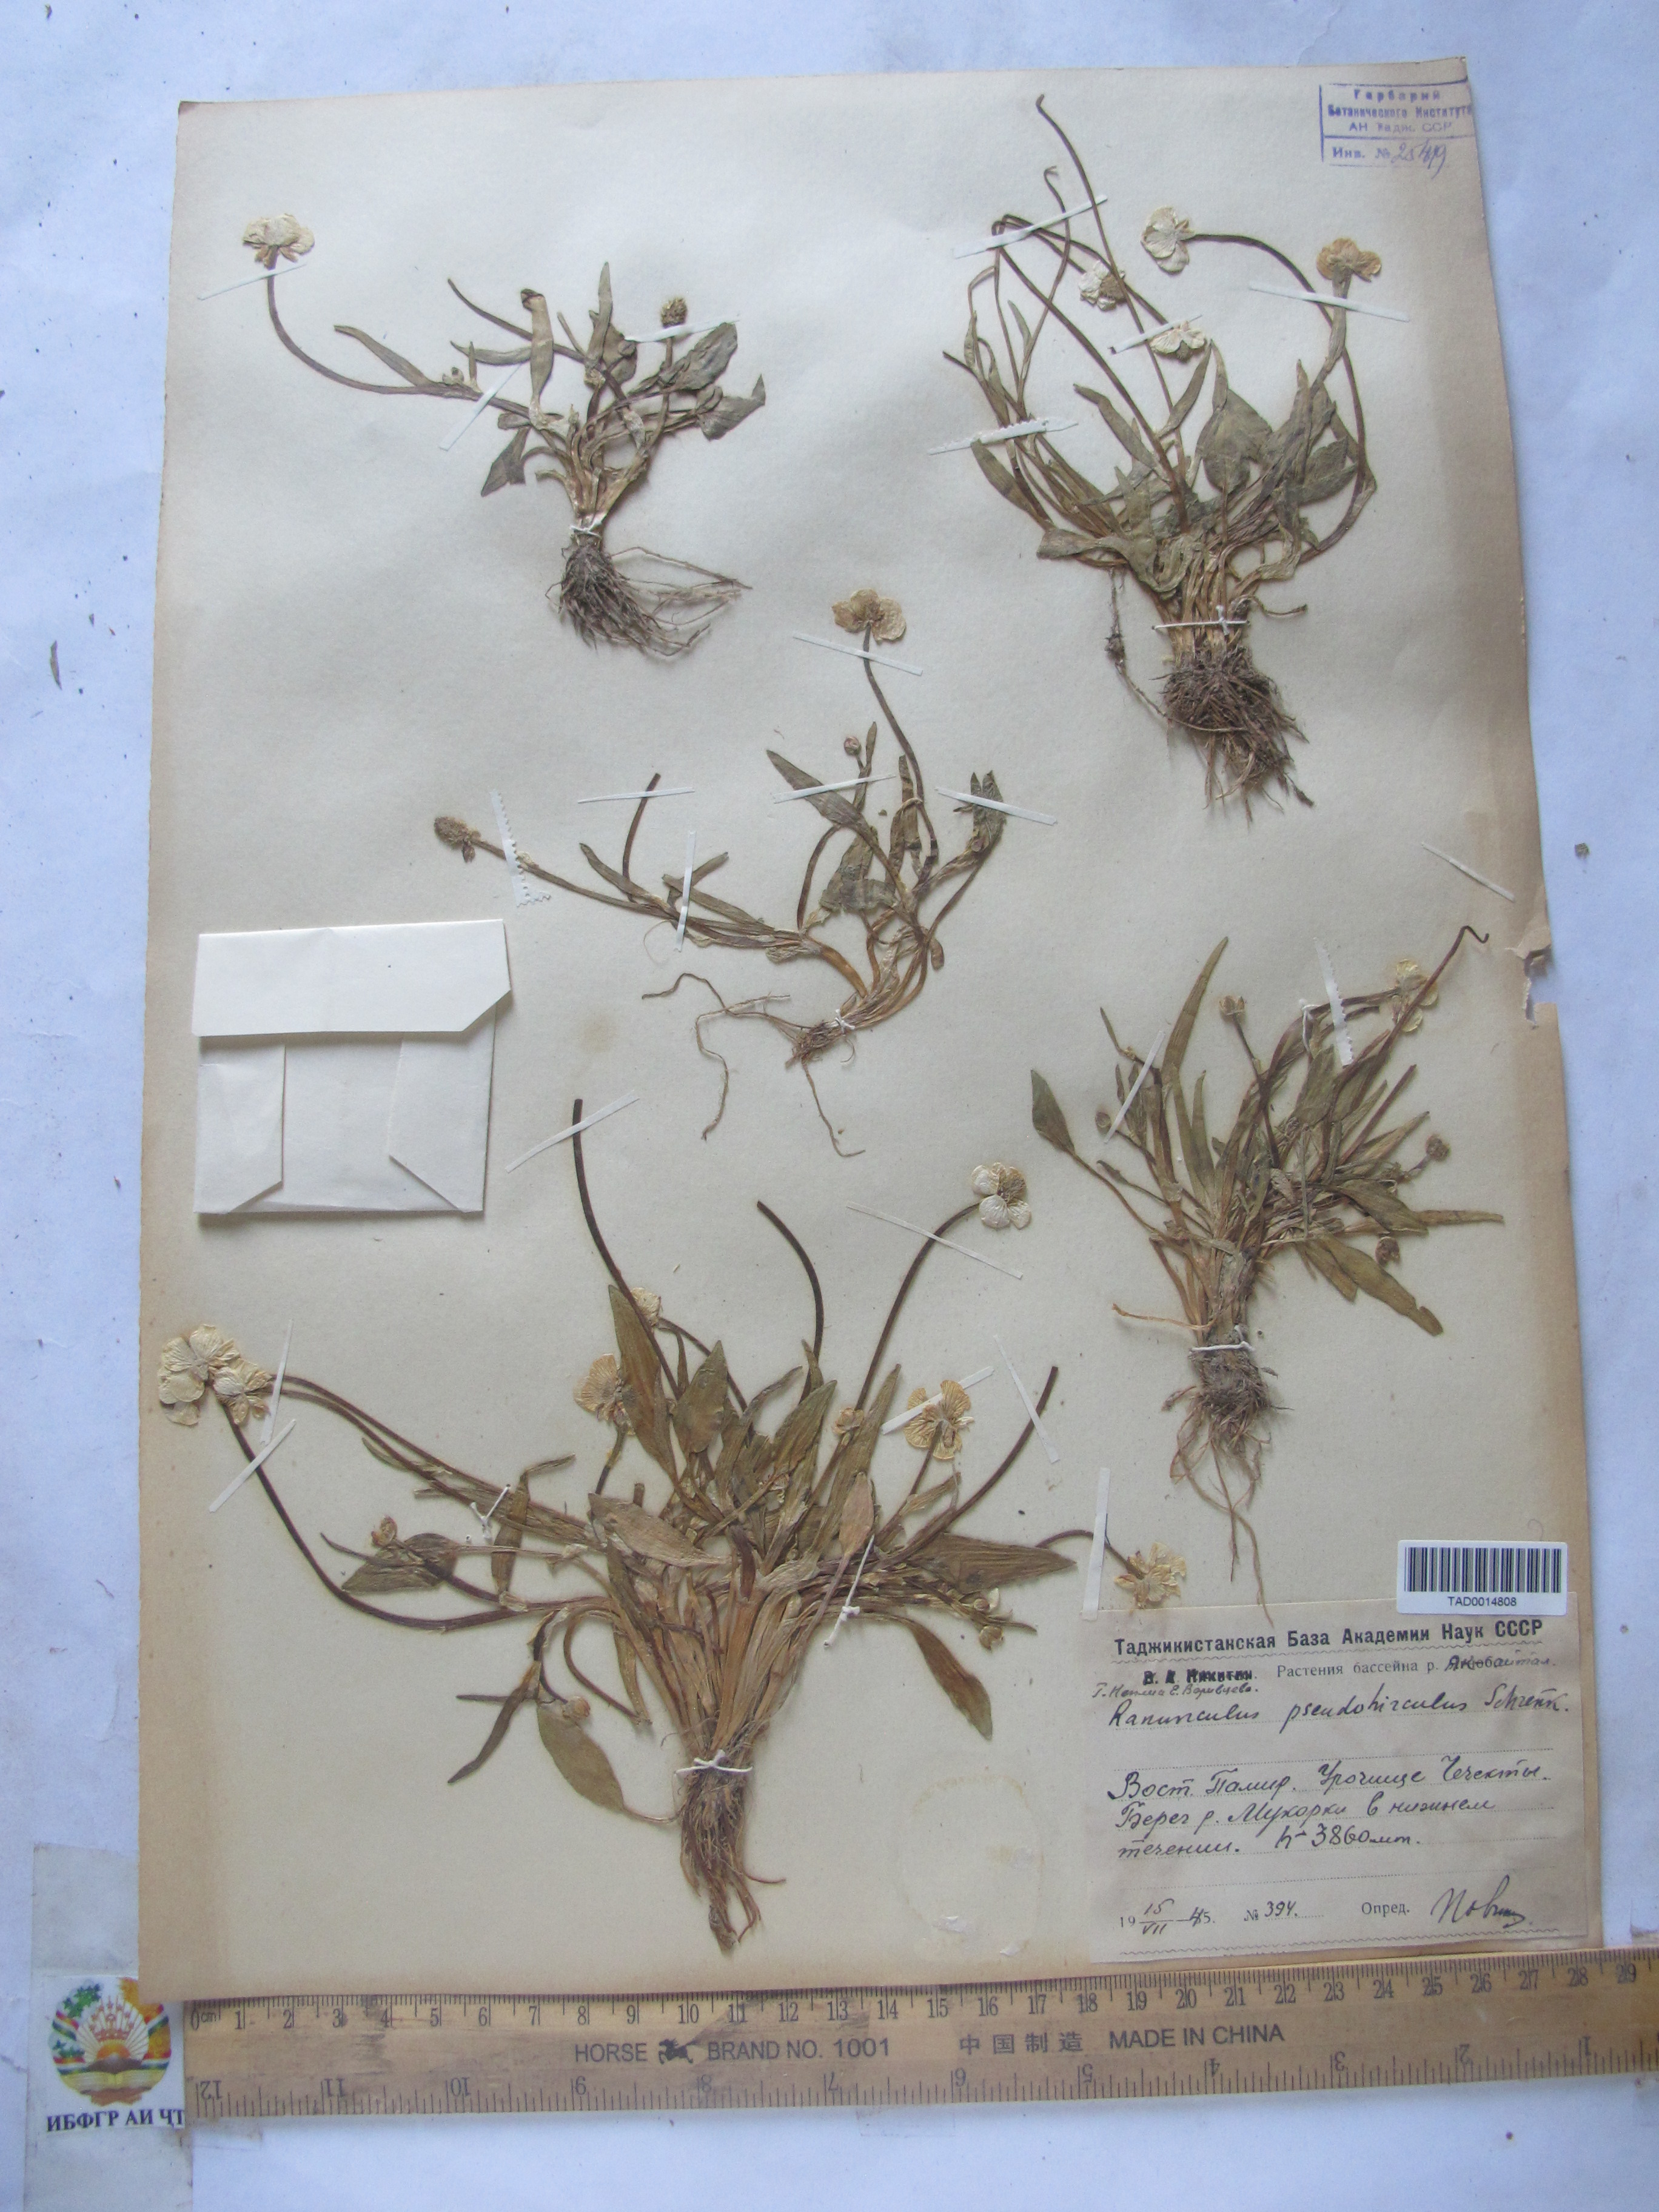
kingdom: Plantae
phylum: Tracheophyta
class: Magnoliopsida
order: Ranunculales
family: Ranunculaceae
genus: Ranunculus
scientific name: Ranunculus pseudohirculus
